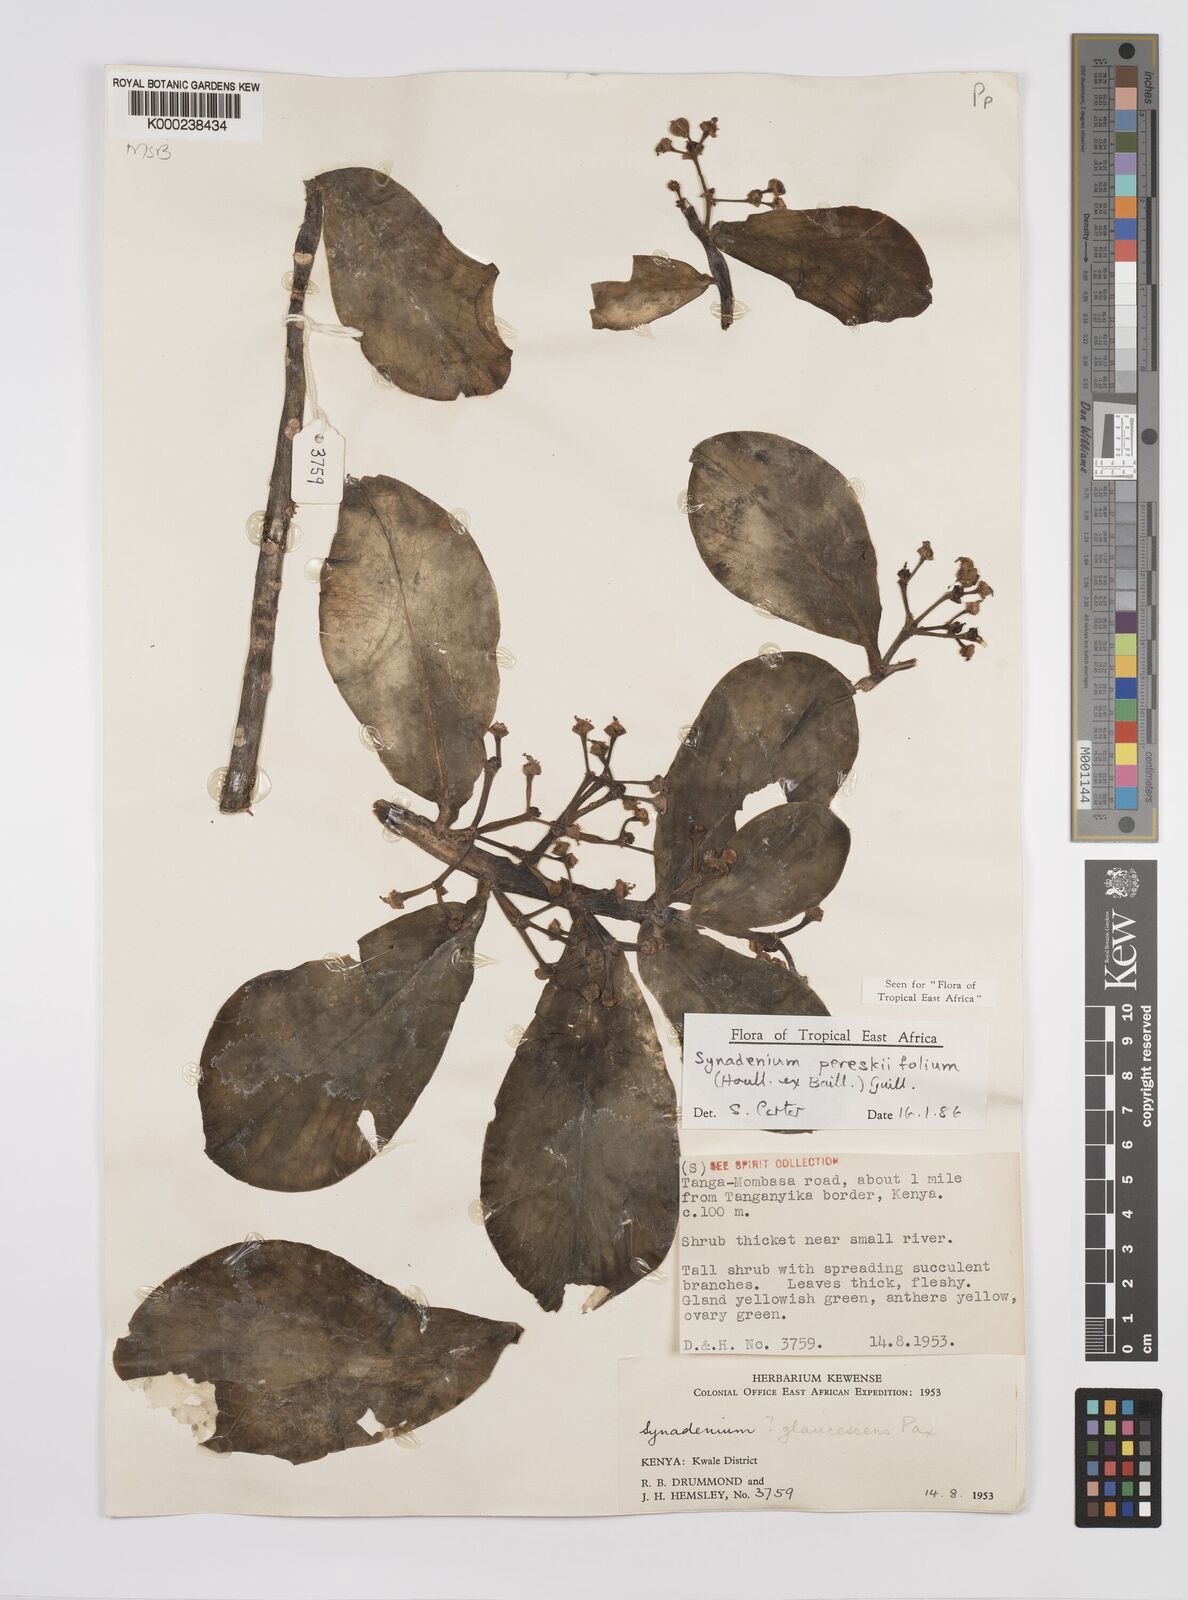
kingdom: Plantae
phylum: Tracheophyta
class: Magnoliopsida
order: Malpighiales
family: Euphorbiaceae
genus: Euphorbia
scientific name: Euphorbia pereskiifolia
